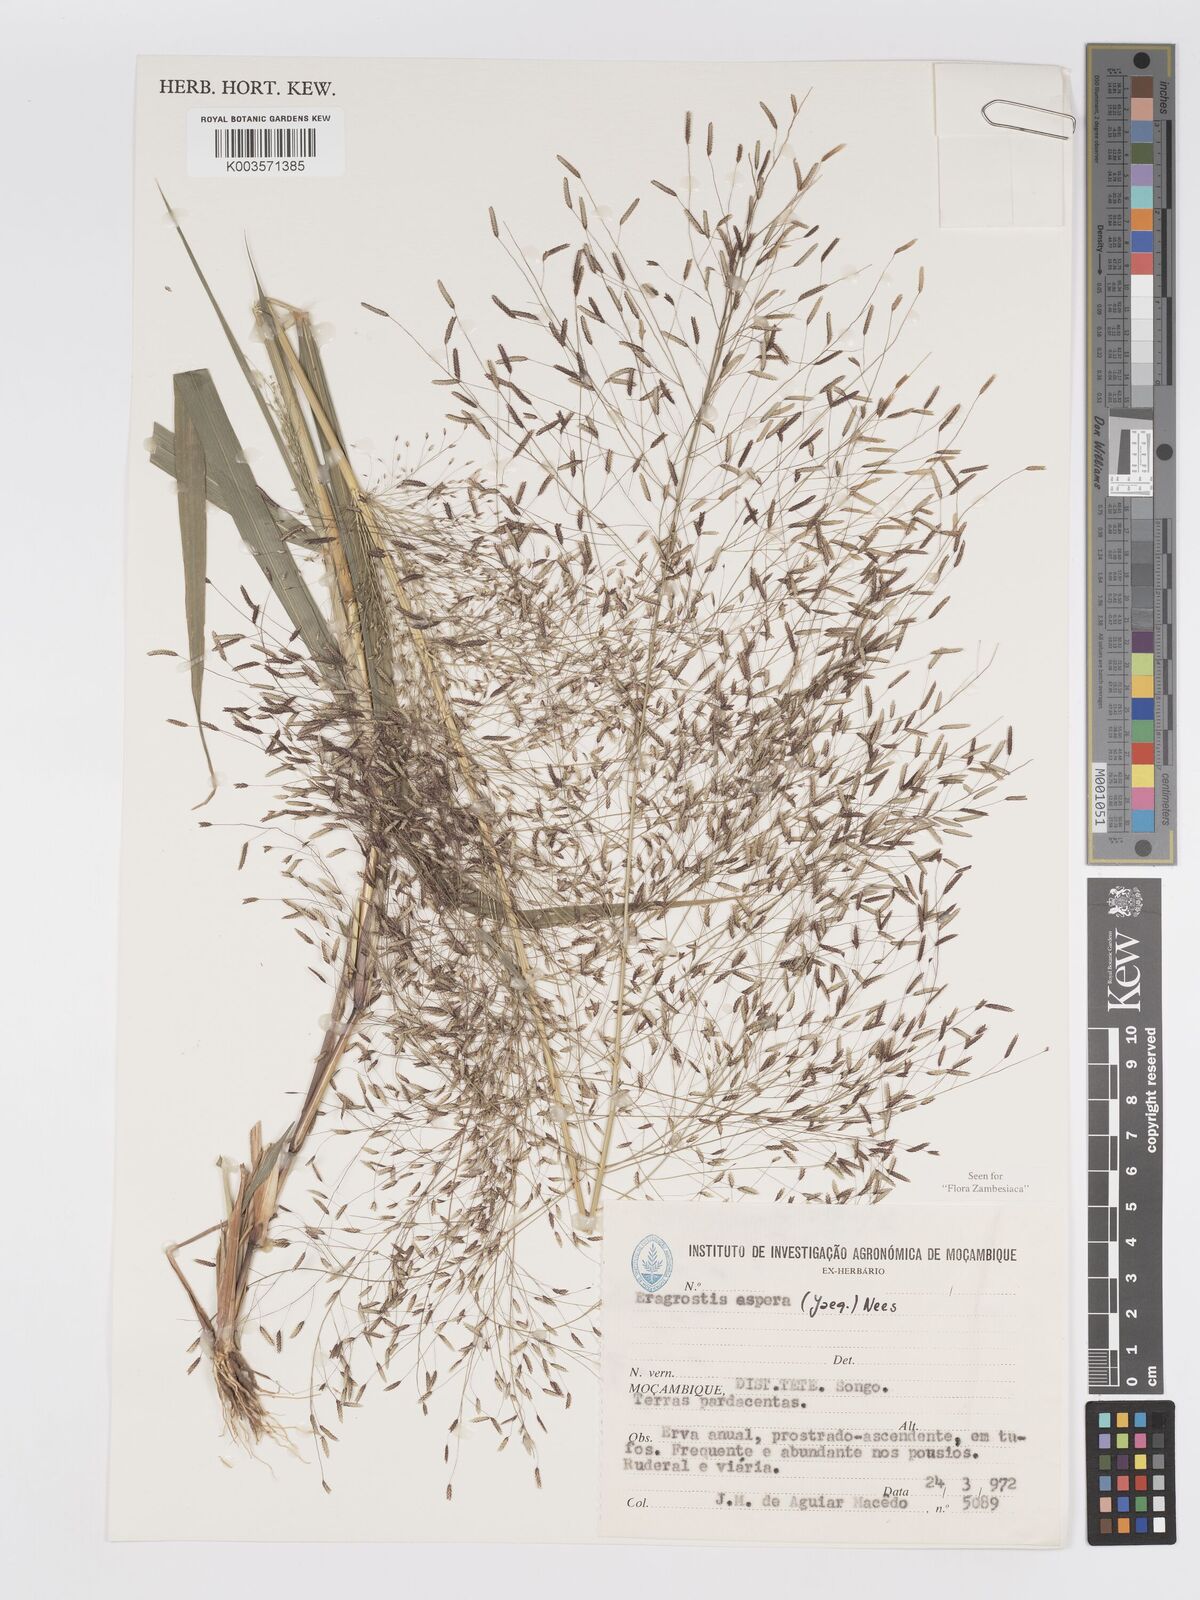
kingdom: Plantae
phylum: Tracheophyta
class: Liliopsida
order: Poales
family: Poaceae
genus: Eragrostis
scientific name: Eragrostis aspera
